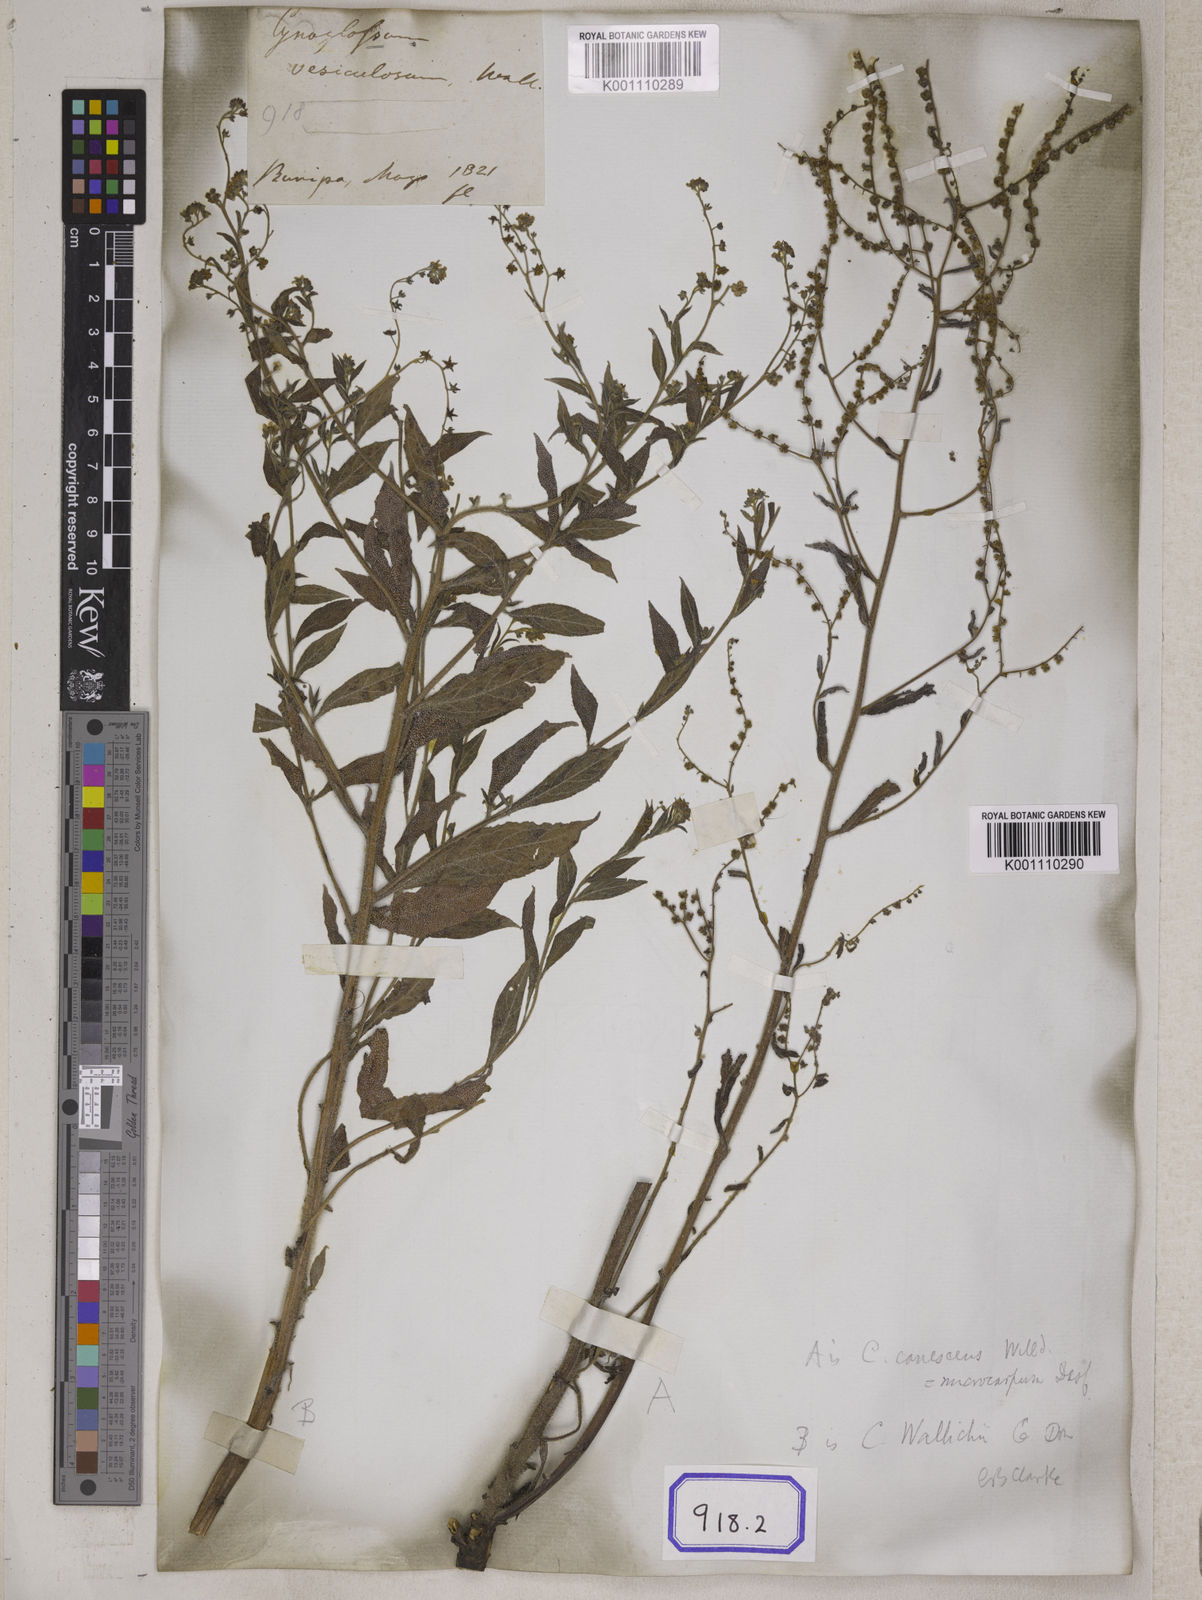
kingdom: Plantae
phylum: Tracheophyta
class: Magnoliopsida
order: Boraginales
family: Boraginaceae
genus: Paracynoglossum
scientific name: Paracynoglossum lanceolatum
